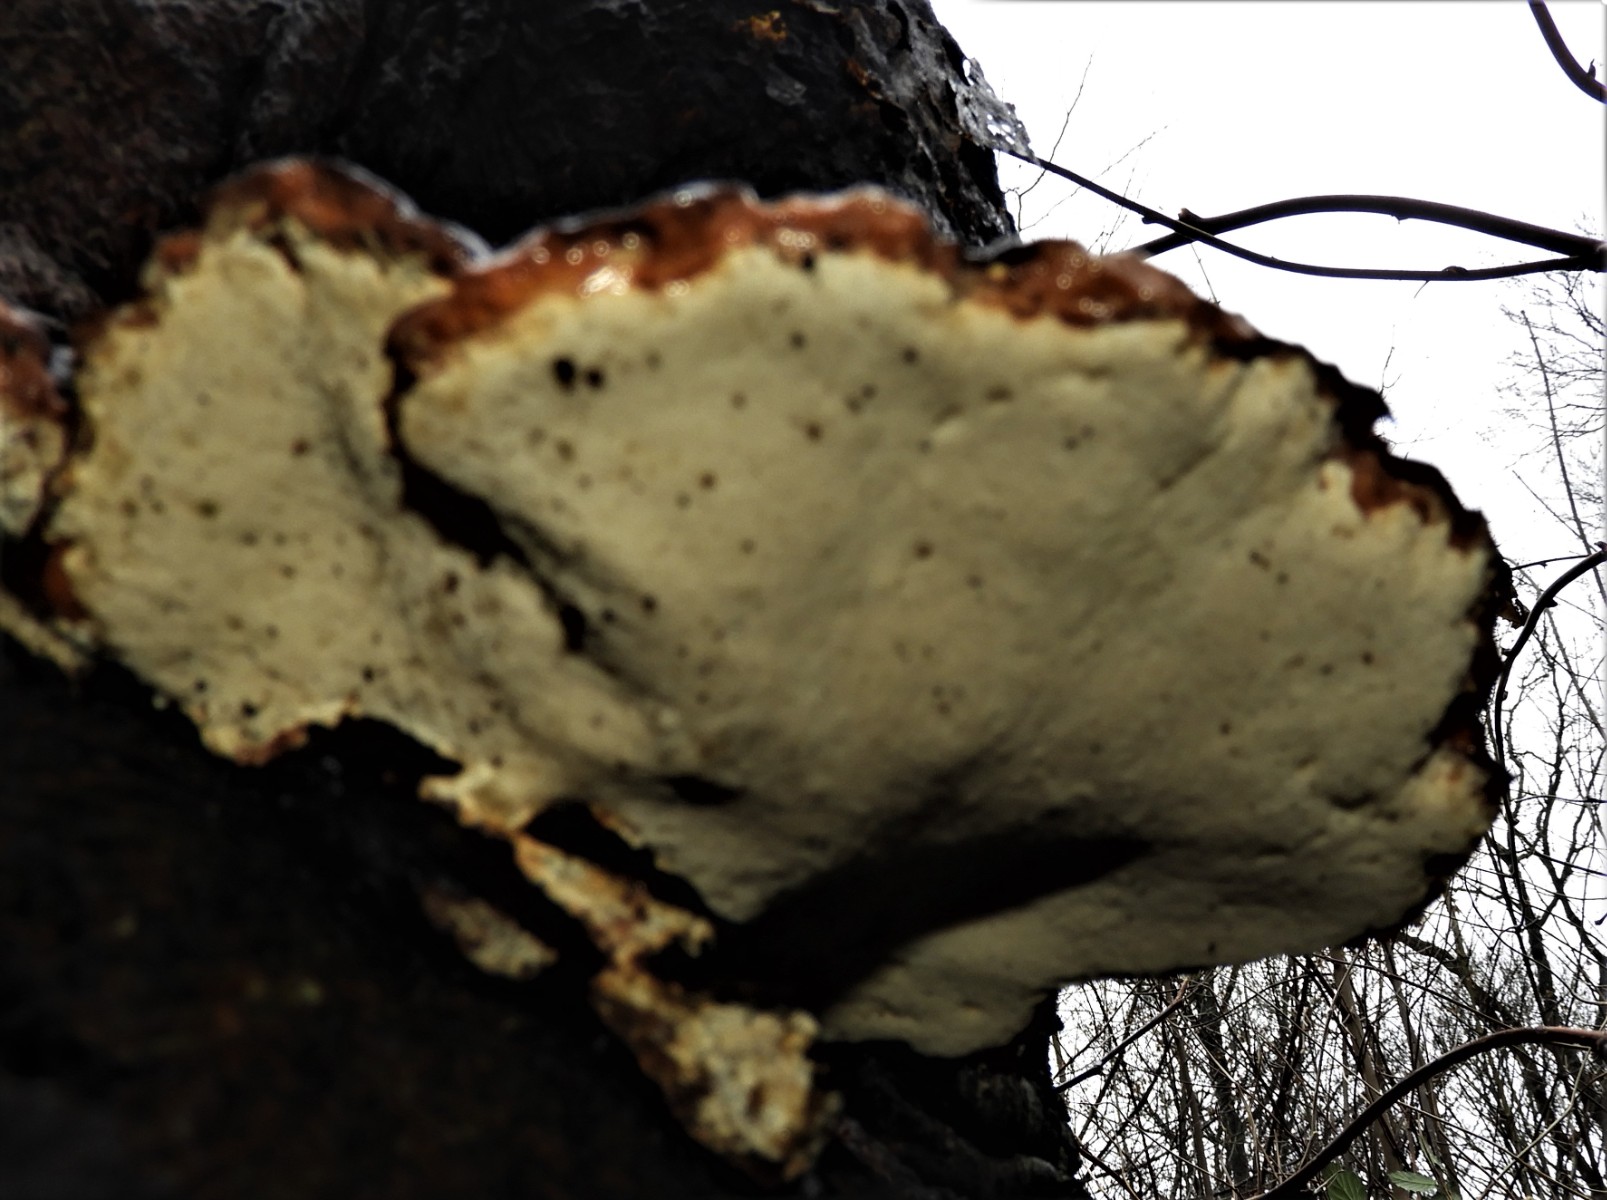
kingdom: Fungi
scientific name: Fungi
